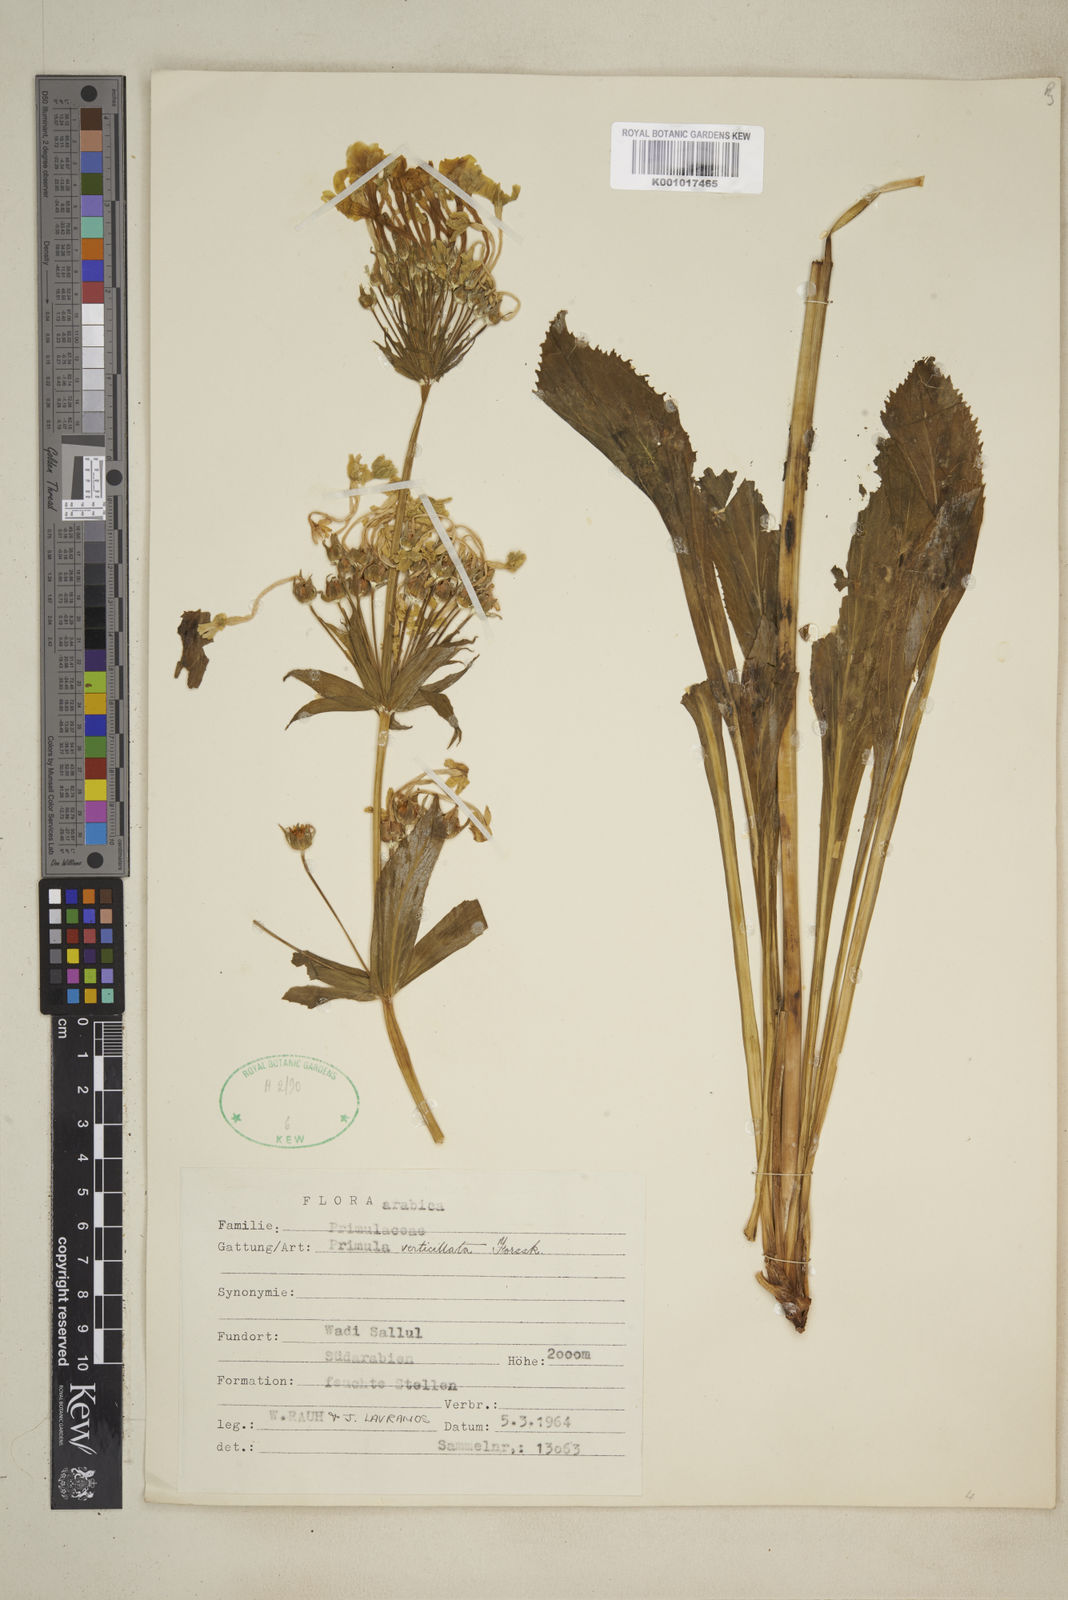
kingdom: Plantae
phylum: Tracheophyta
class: Magnoliopsida
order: Ericales
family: Primulaceae
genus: Evotrochis
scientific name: Evotrochis verticillata
